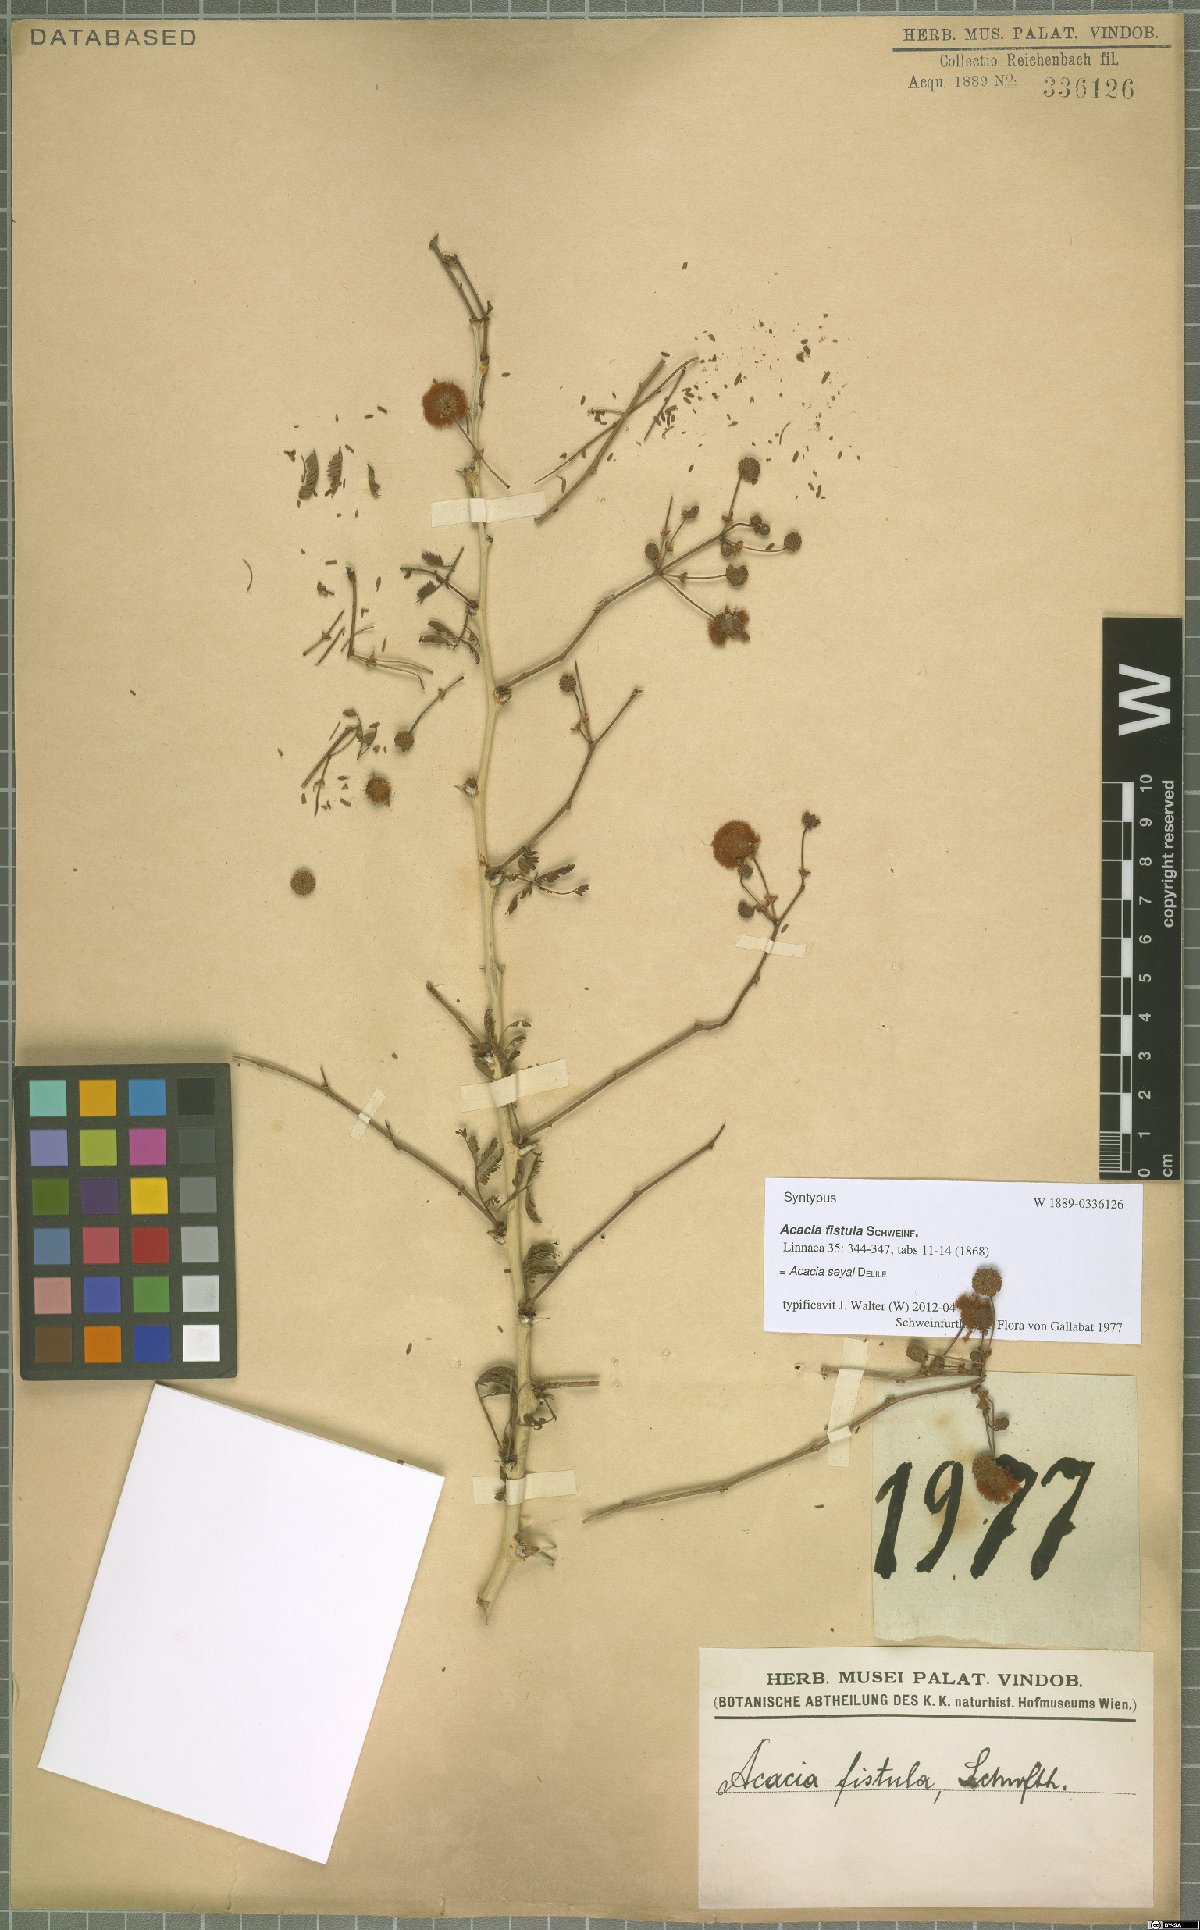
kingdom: Plantae
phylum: Tracheophyta
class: Magnoliopsida
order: Fabales
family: Fabaceae
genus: Vachellia
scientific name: Vachellia seyal
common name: Thirtythorn
